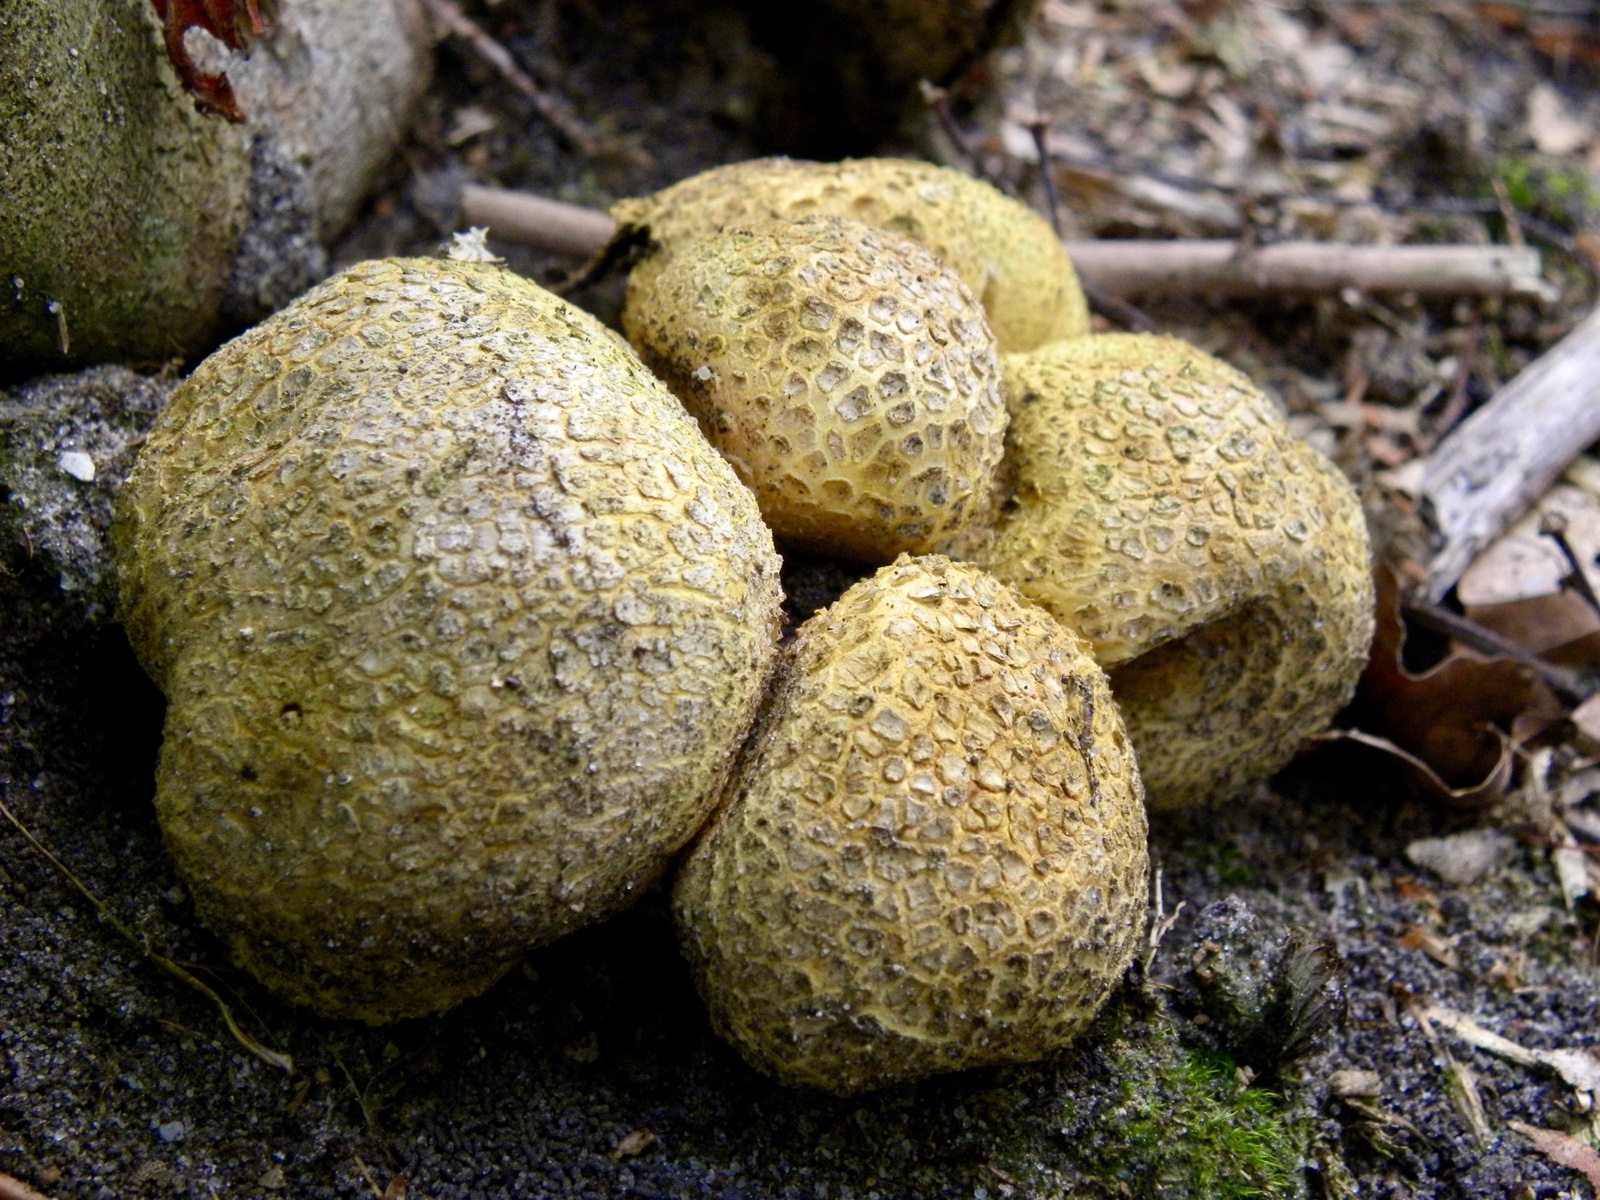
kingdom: Fungi
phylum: Basidiomycota
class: Agaricomycetes
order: Boletales
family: Sclerodermataceae
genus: Scleroderma
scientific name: Scleroderma citrinum
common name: almindelig bruskbold
